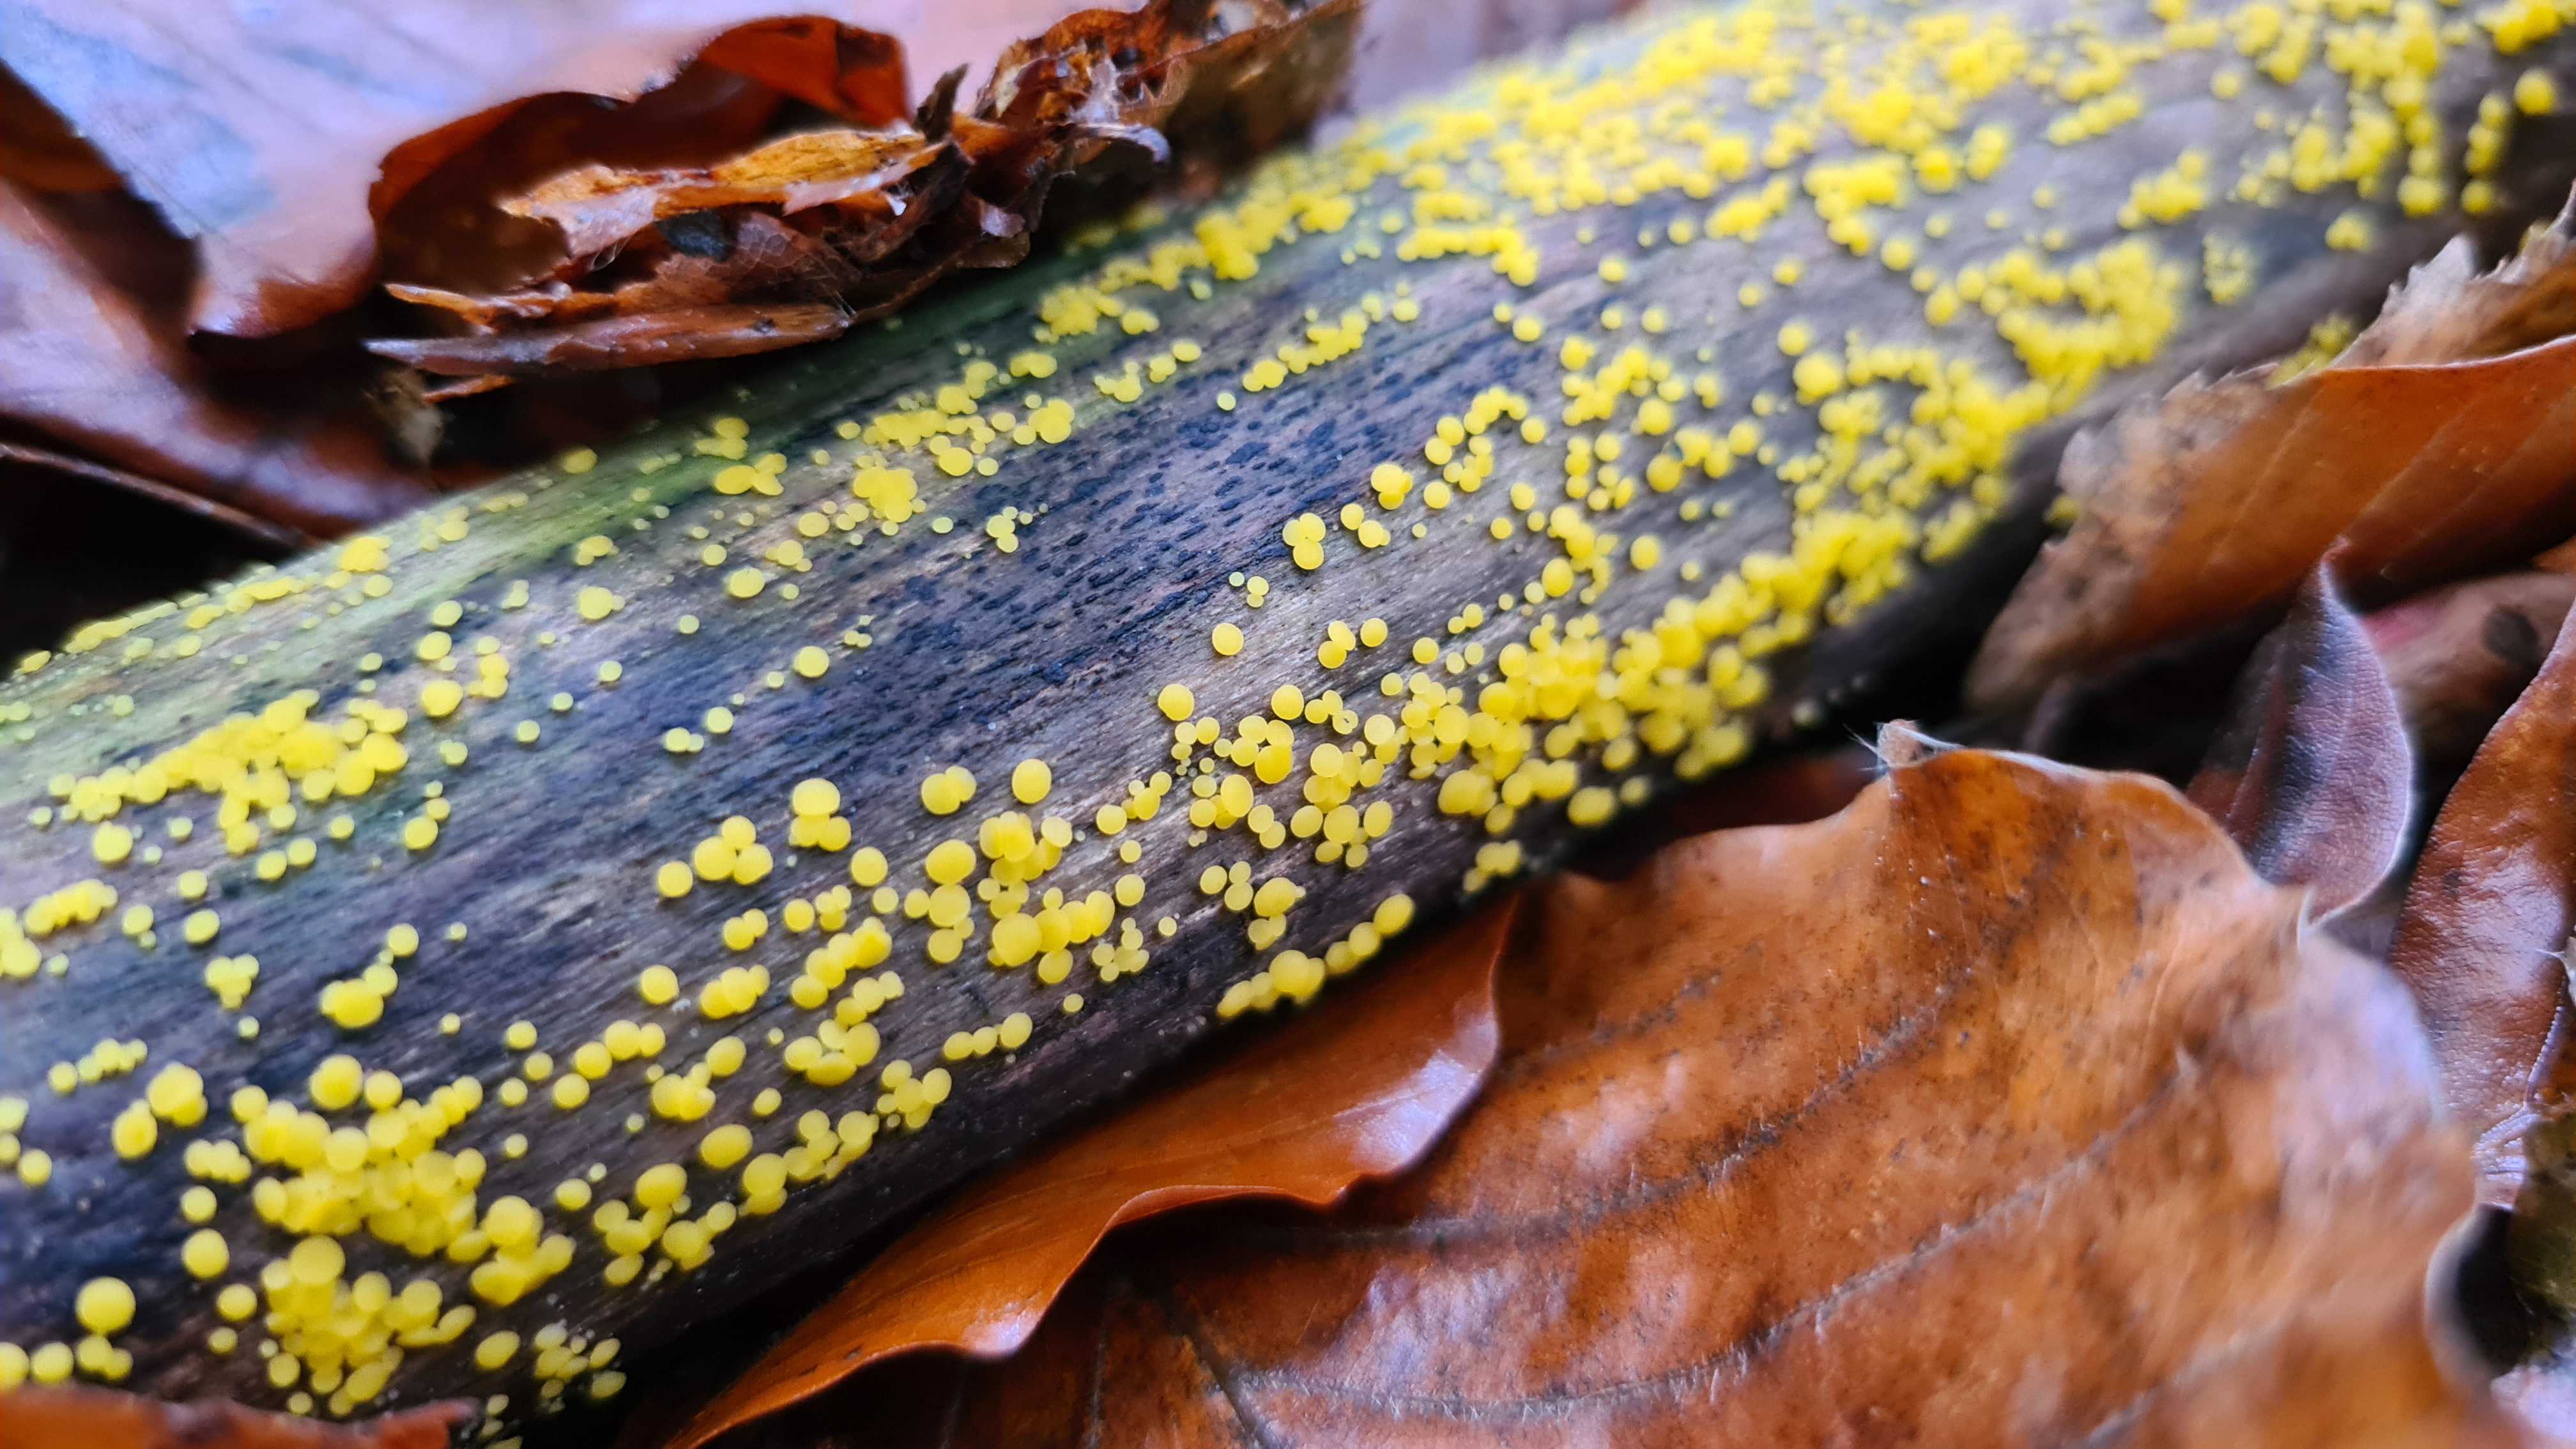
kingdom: Fungi
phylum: Ascomycota
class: Leotiomycetes
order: Helotiales
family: Pezizellaceae
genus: Calycina
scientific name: Calycina citrina
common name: almindelig gulskive
